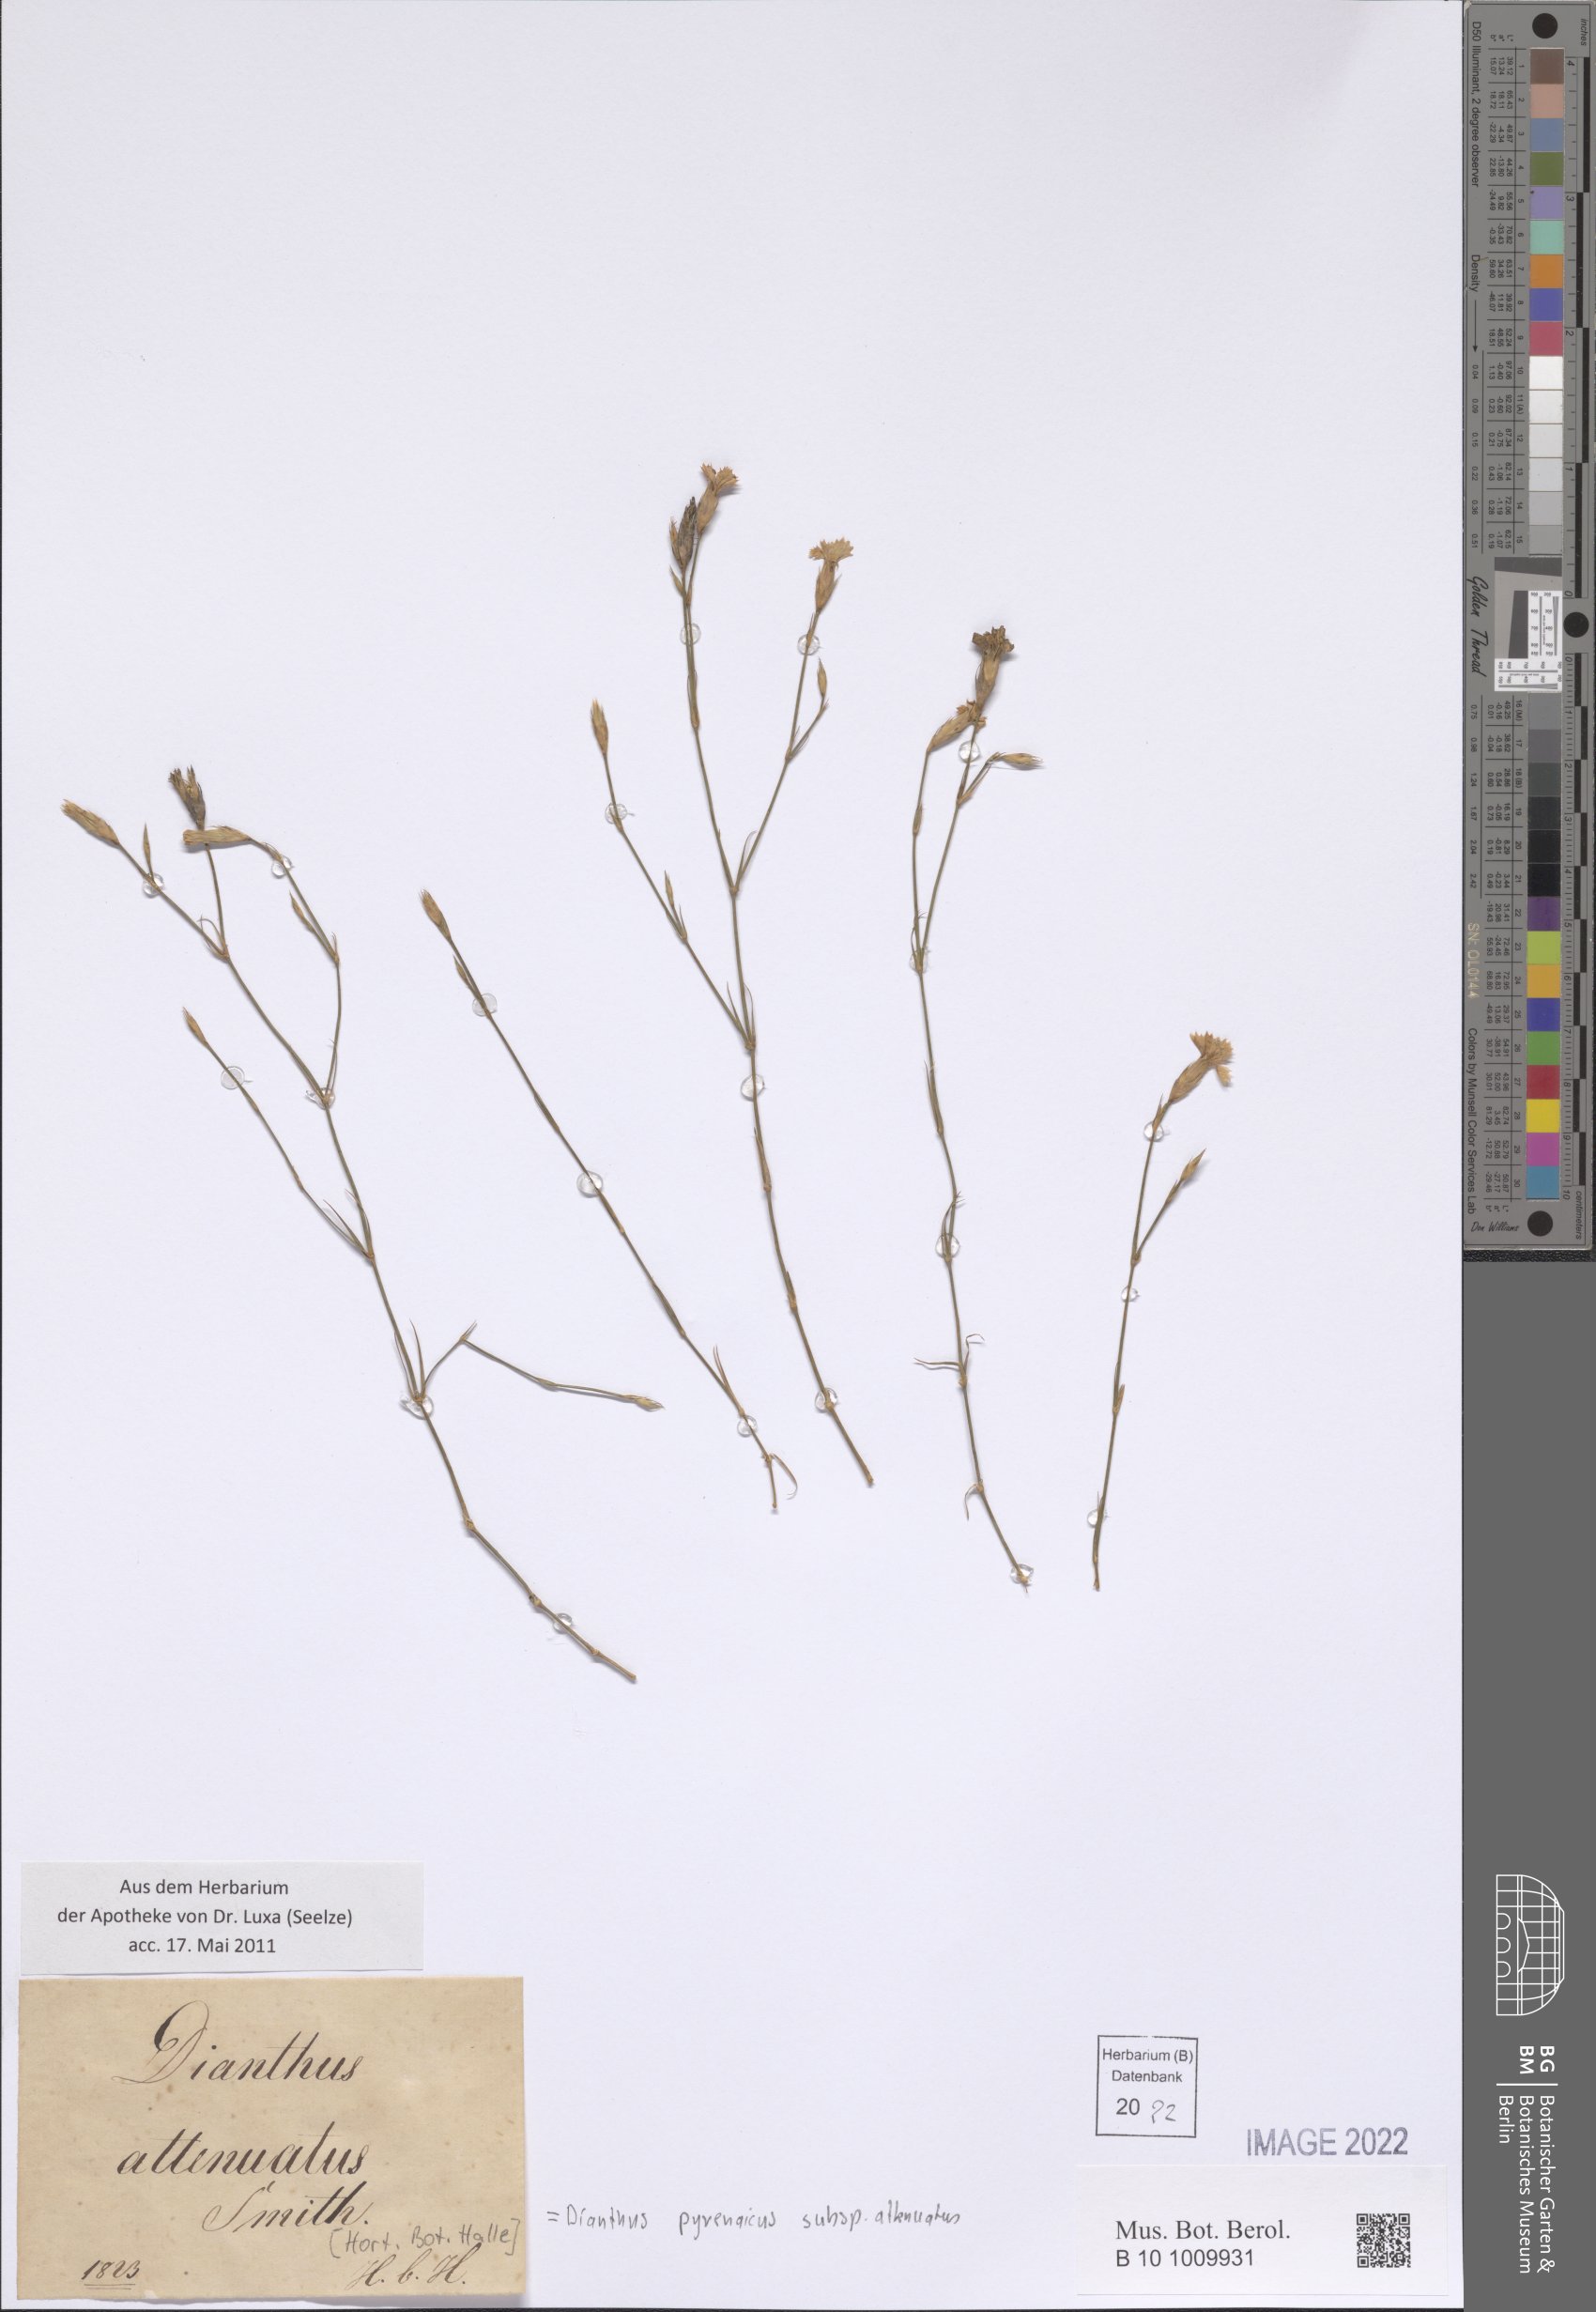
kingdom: Plantae
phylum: Tracheophyta
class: Magnoliopsida
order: Caryophyllales
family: Caryophyllaceae
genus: Dianthus
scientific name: Dianthus pyrenaicus
